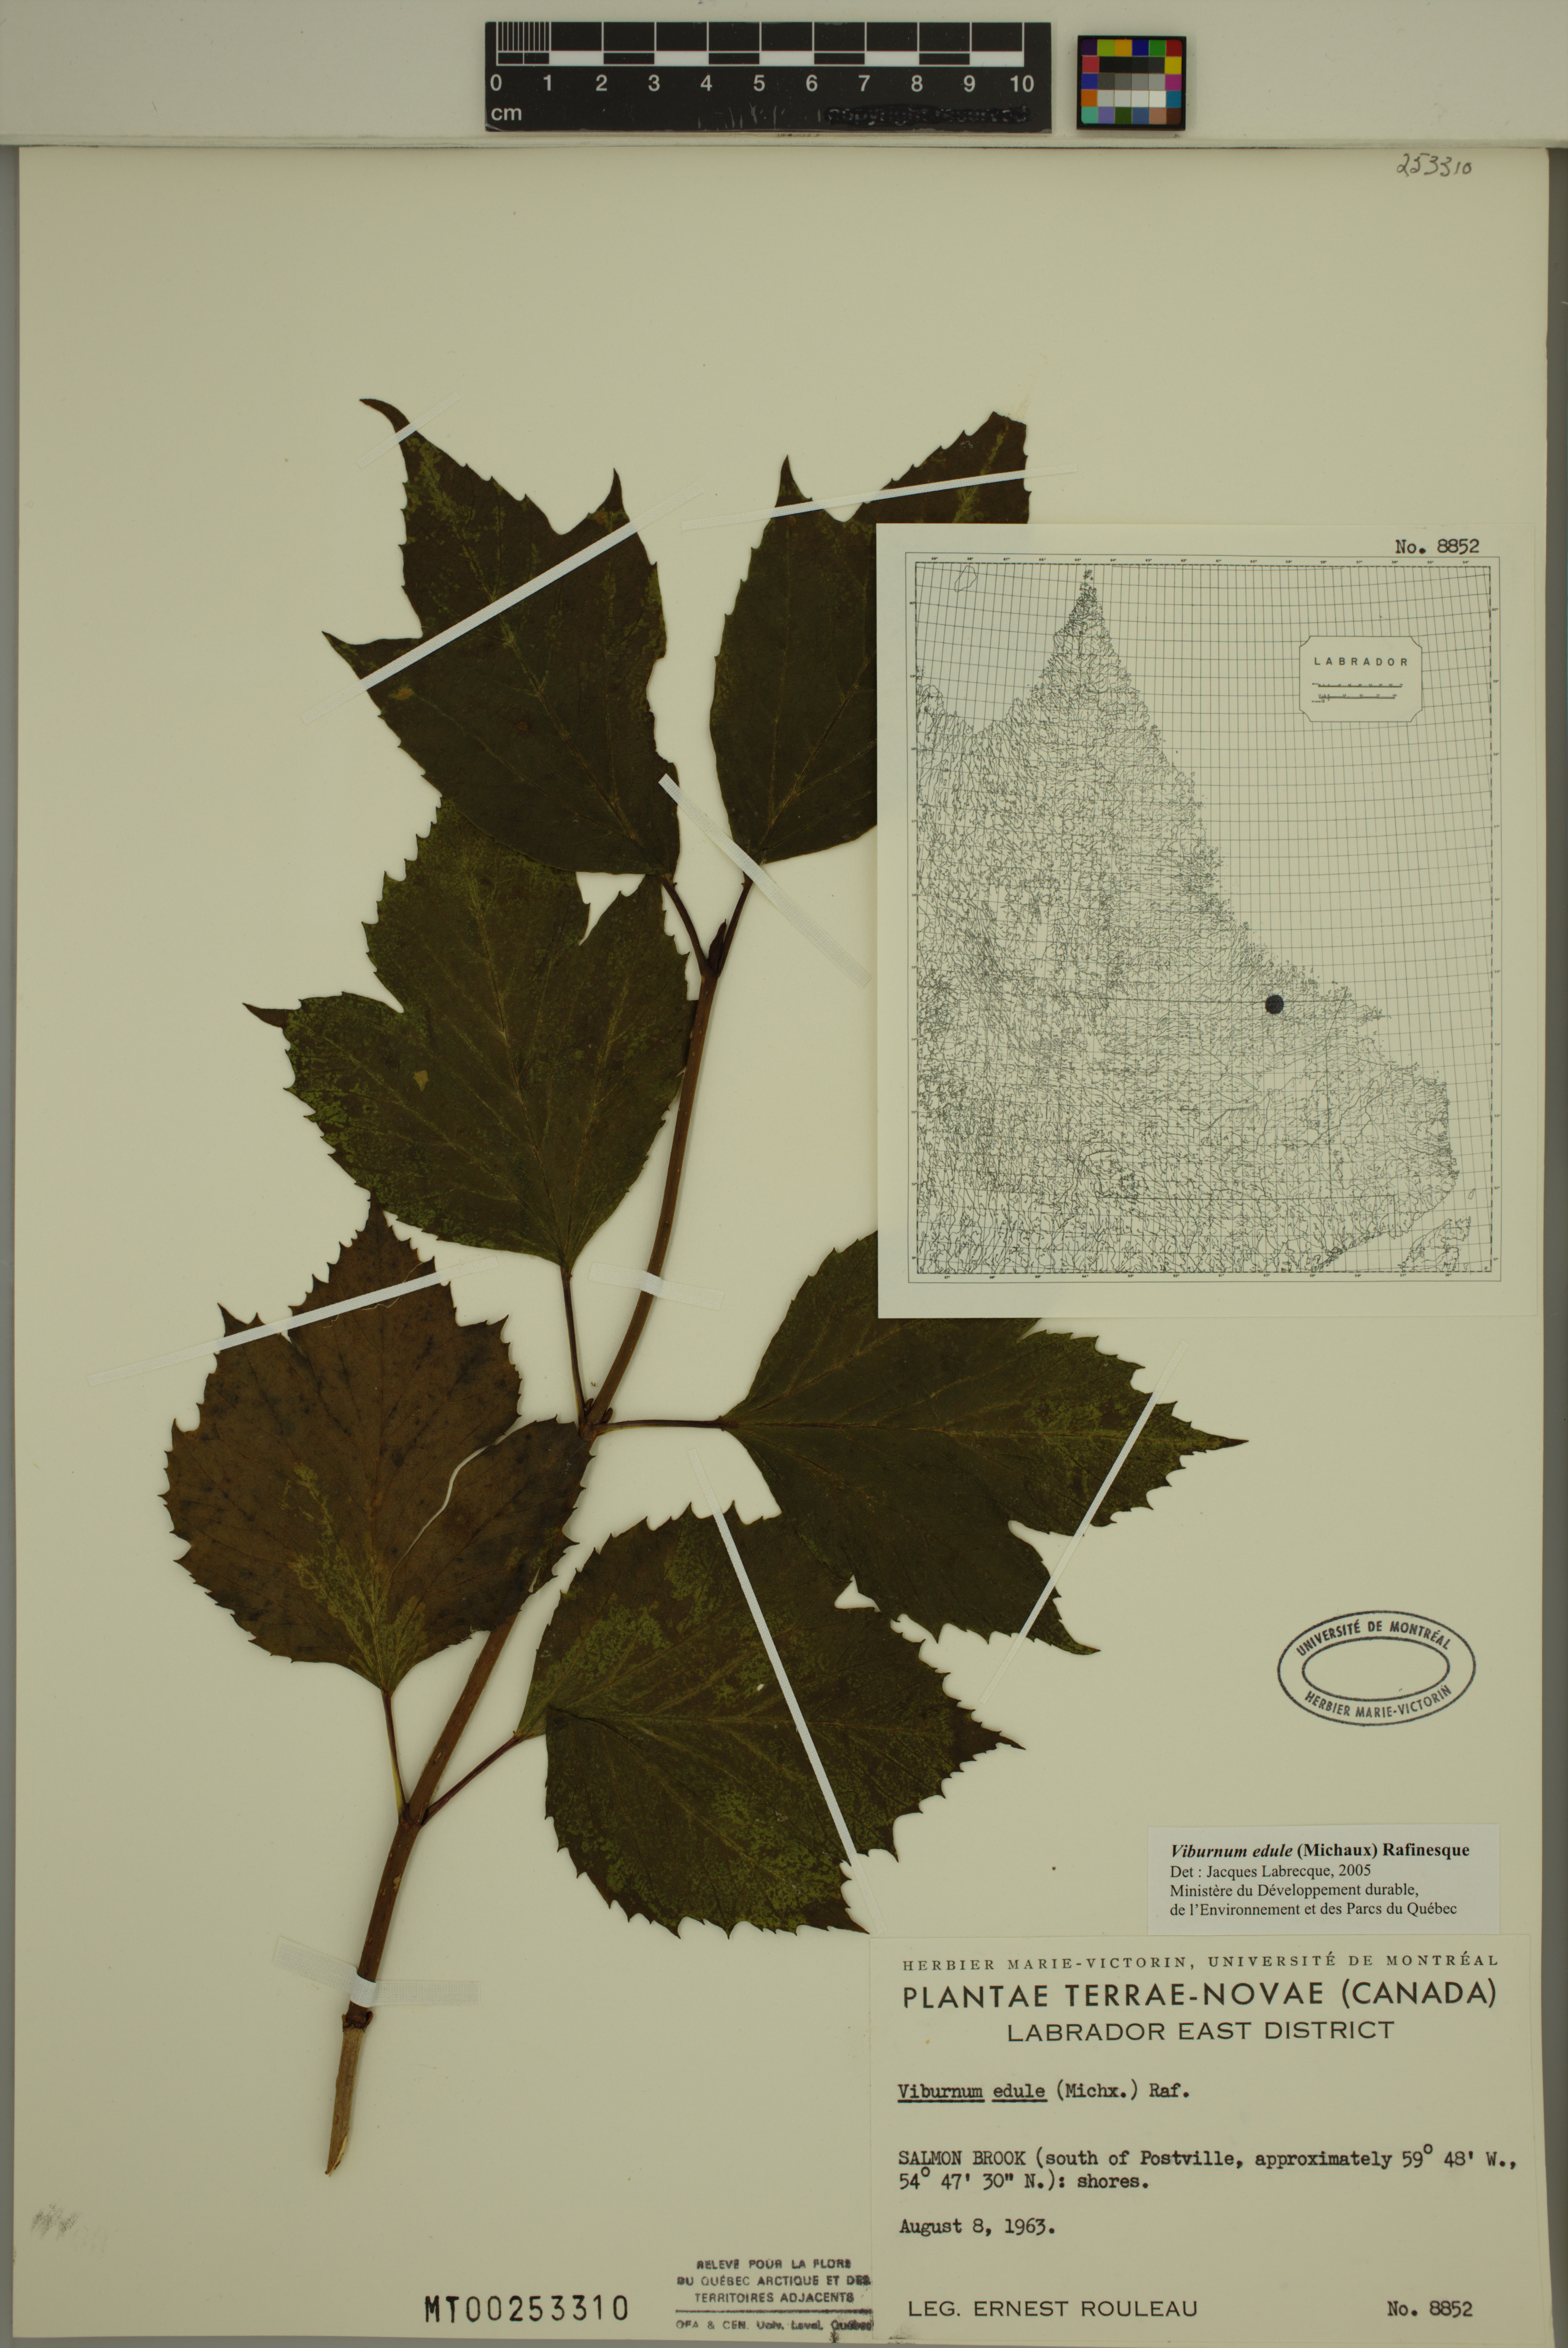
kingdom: Plantae
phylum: Tracheophyta
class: Magnoliopsida
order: Dipsacales
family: Viburnaceae
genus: Viburnum
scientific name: Viburnum edule
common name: Mooseberry
